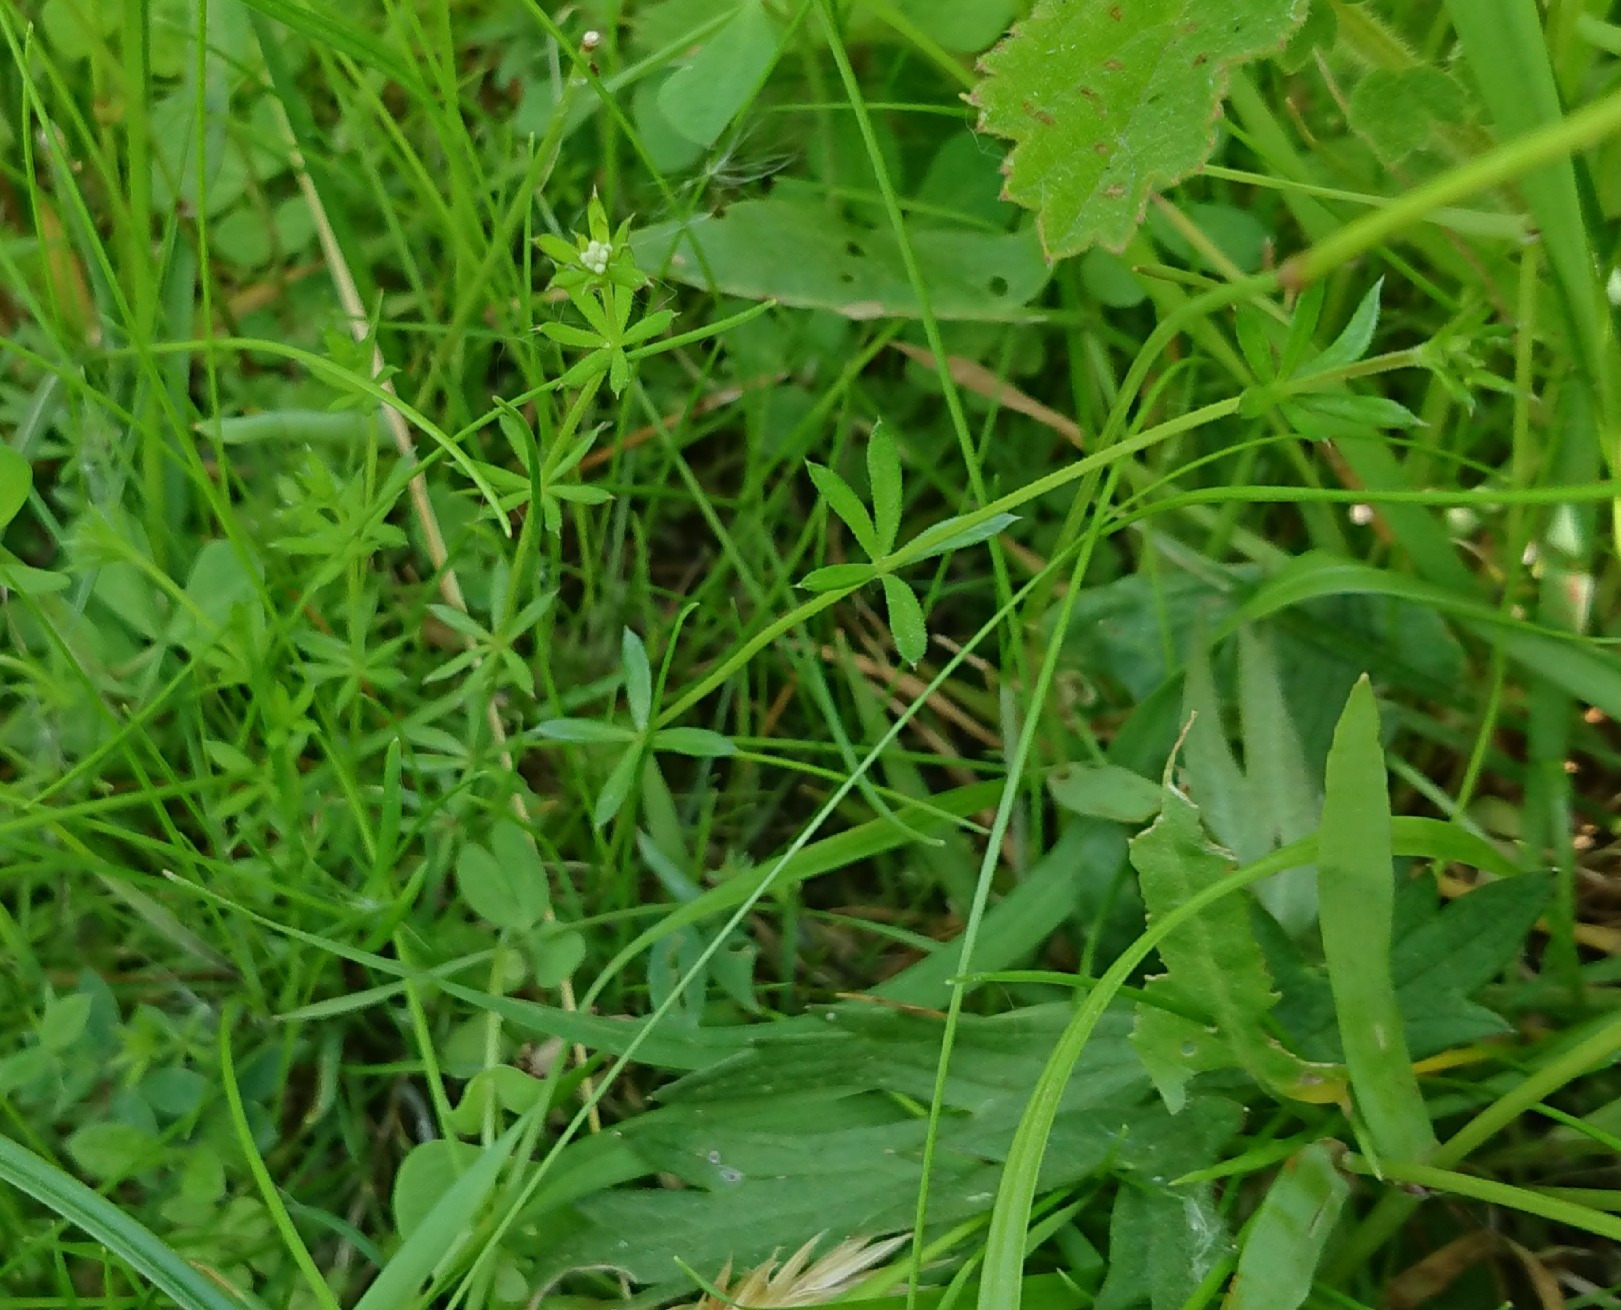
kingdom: Plantae
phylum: Tracheophyta
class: Magnoliopsida
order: Gentianales
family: Rubiaceae
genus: Galium
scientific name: Galium uliginosum
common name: Sump-snerre
